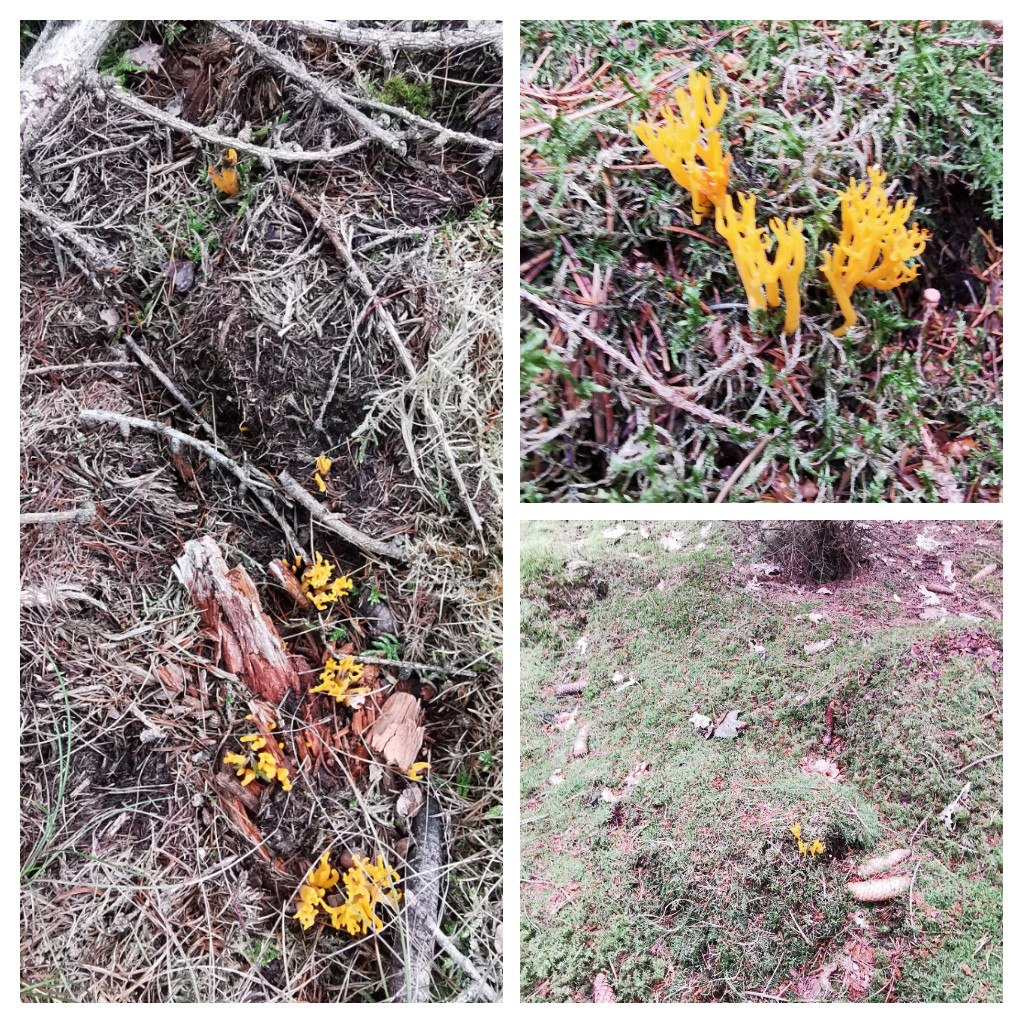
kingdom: Fungi
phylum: Basidiomycota
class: Dacrymycetes
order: Dacrymycetales
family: Dacrymycetaceae
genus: Calocera
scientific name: Calocera viscosa
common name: almindelig guldgaffel
